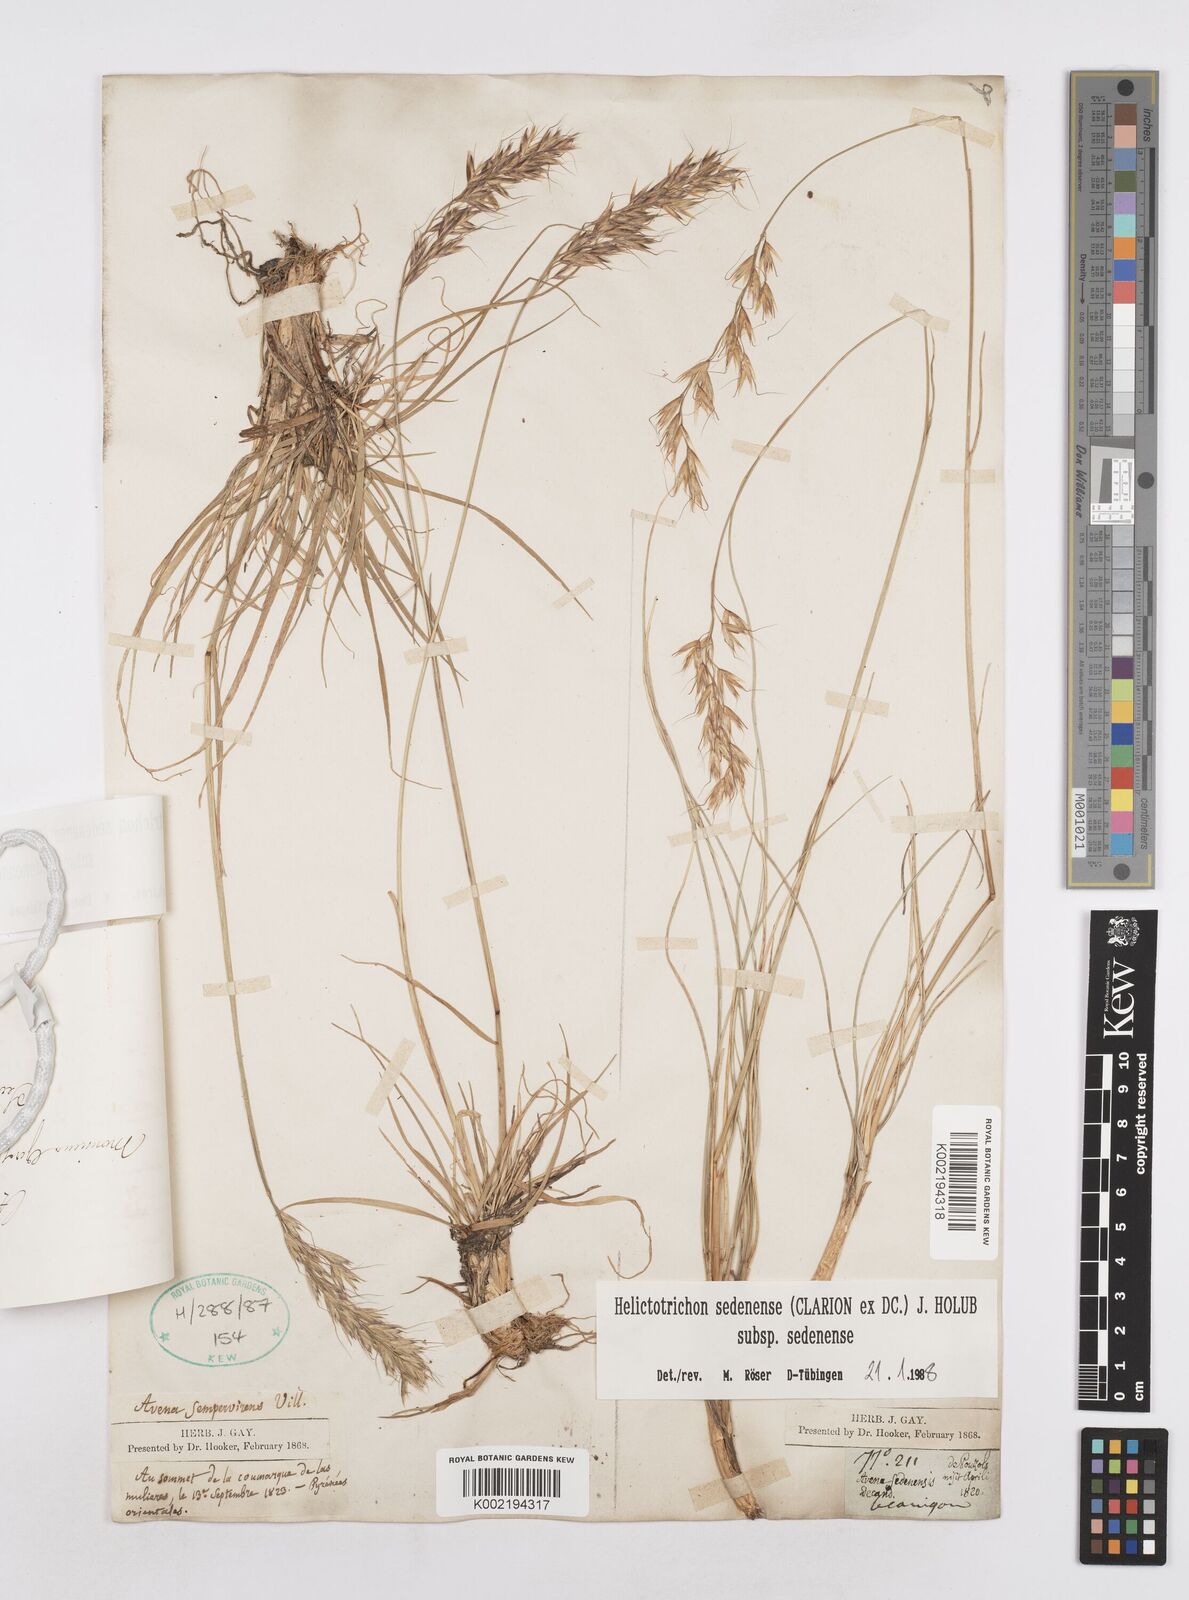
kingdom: Plantae
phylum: Tracheophyta
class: Liliopsida
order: Poales
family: Poaceae
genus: Helictotrichon
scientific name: Helictotrichon sedenense
